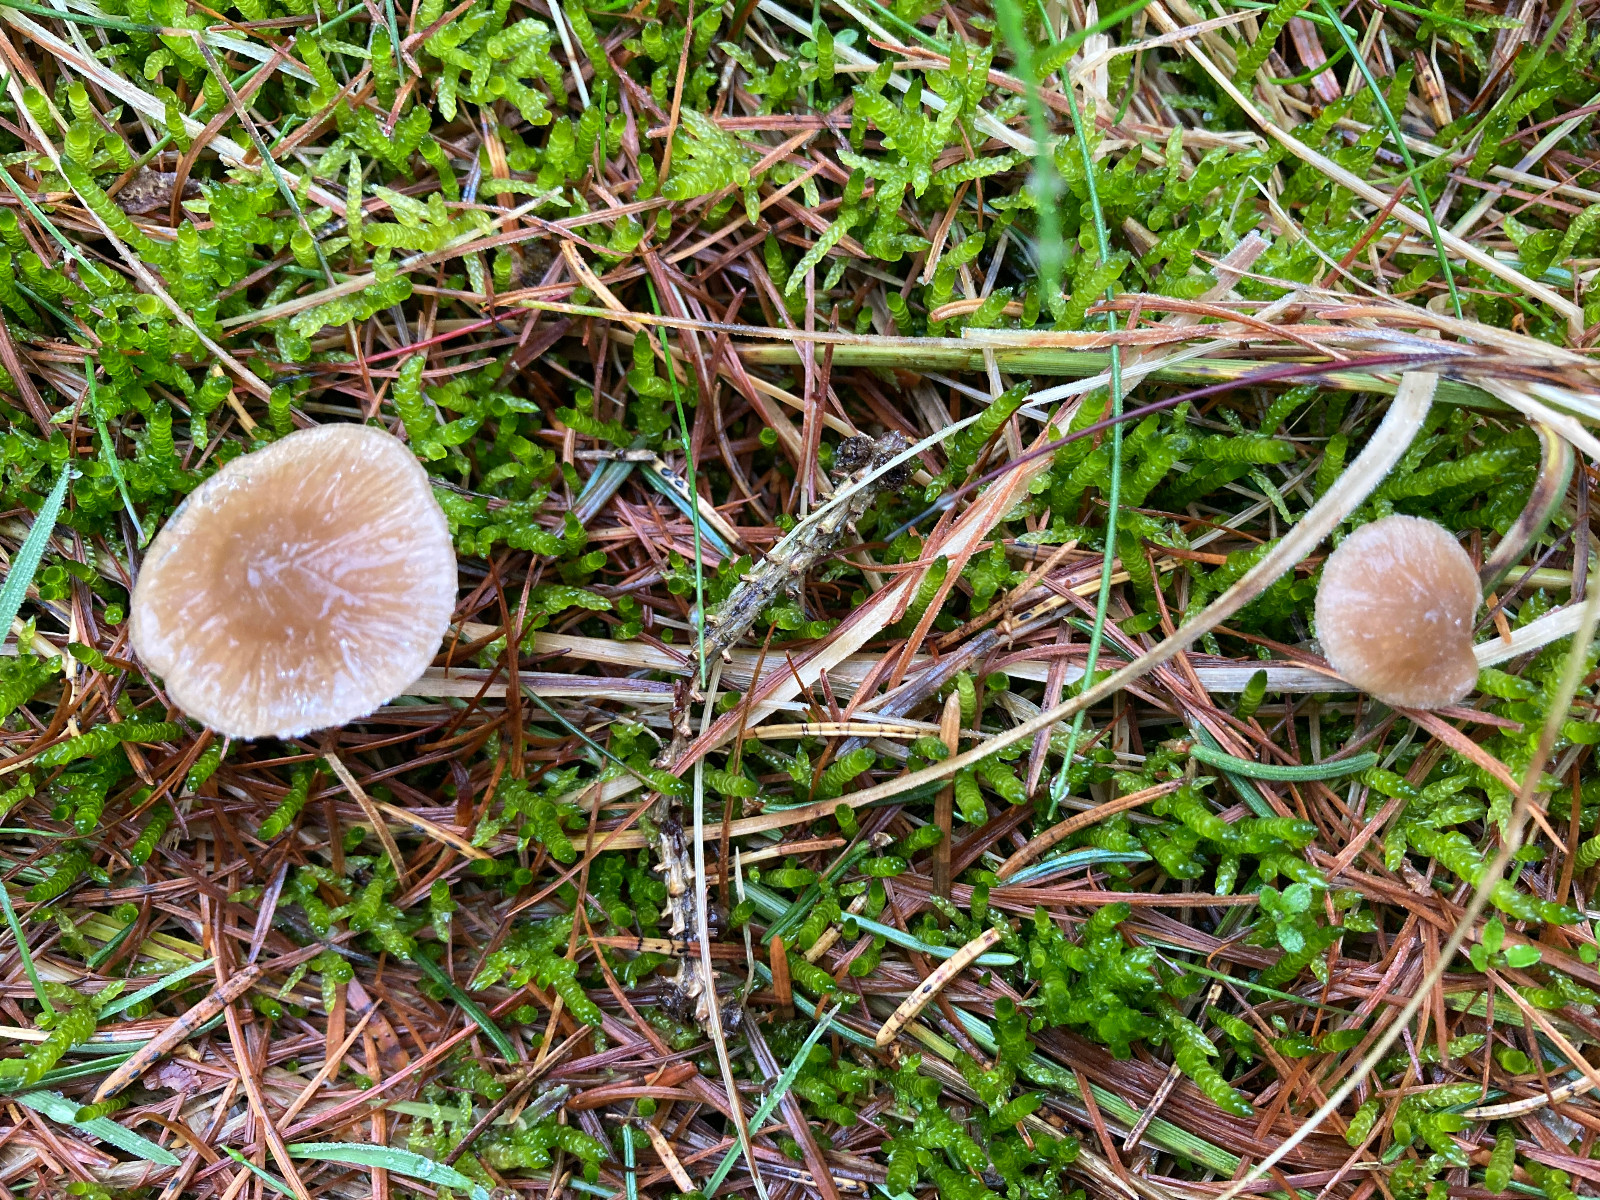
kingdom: Fungi
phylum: Basidiomycota
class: Agaricomycetes
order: Agaricales
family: Entolomataceae
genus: Entoloma
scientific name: Entoloma cetratum
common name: voks-rødblad
